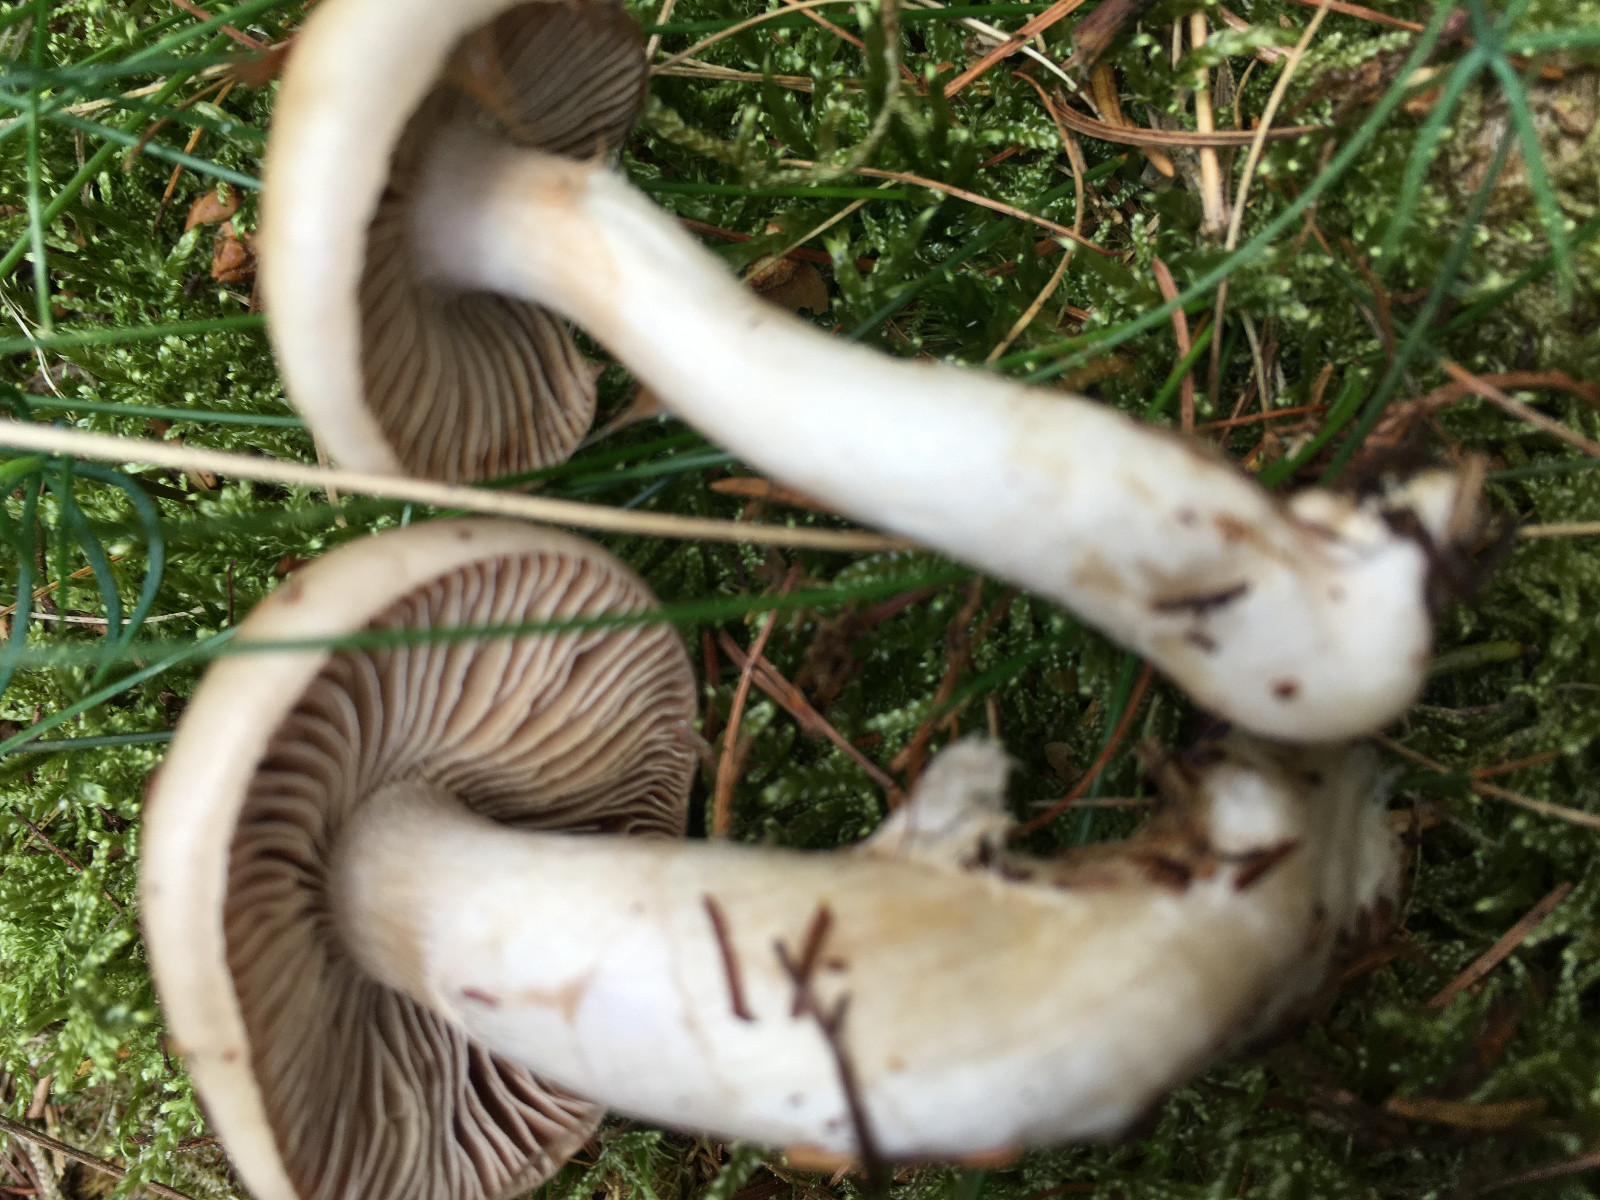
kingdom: Fungi
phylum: Basidiomycota
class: Agaricomycetes
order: Agaricales
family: Cortinariaceae
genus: Cortinarius
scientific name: Cortinarius
